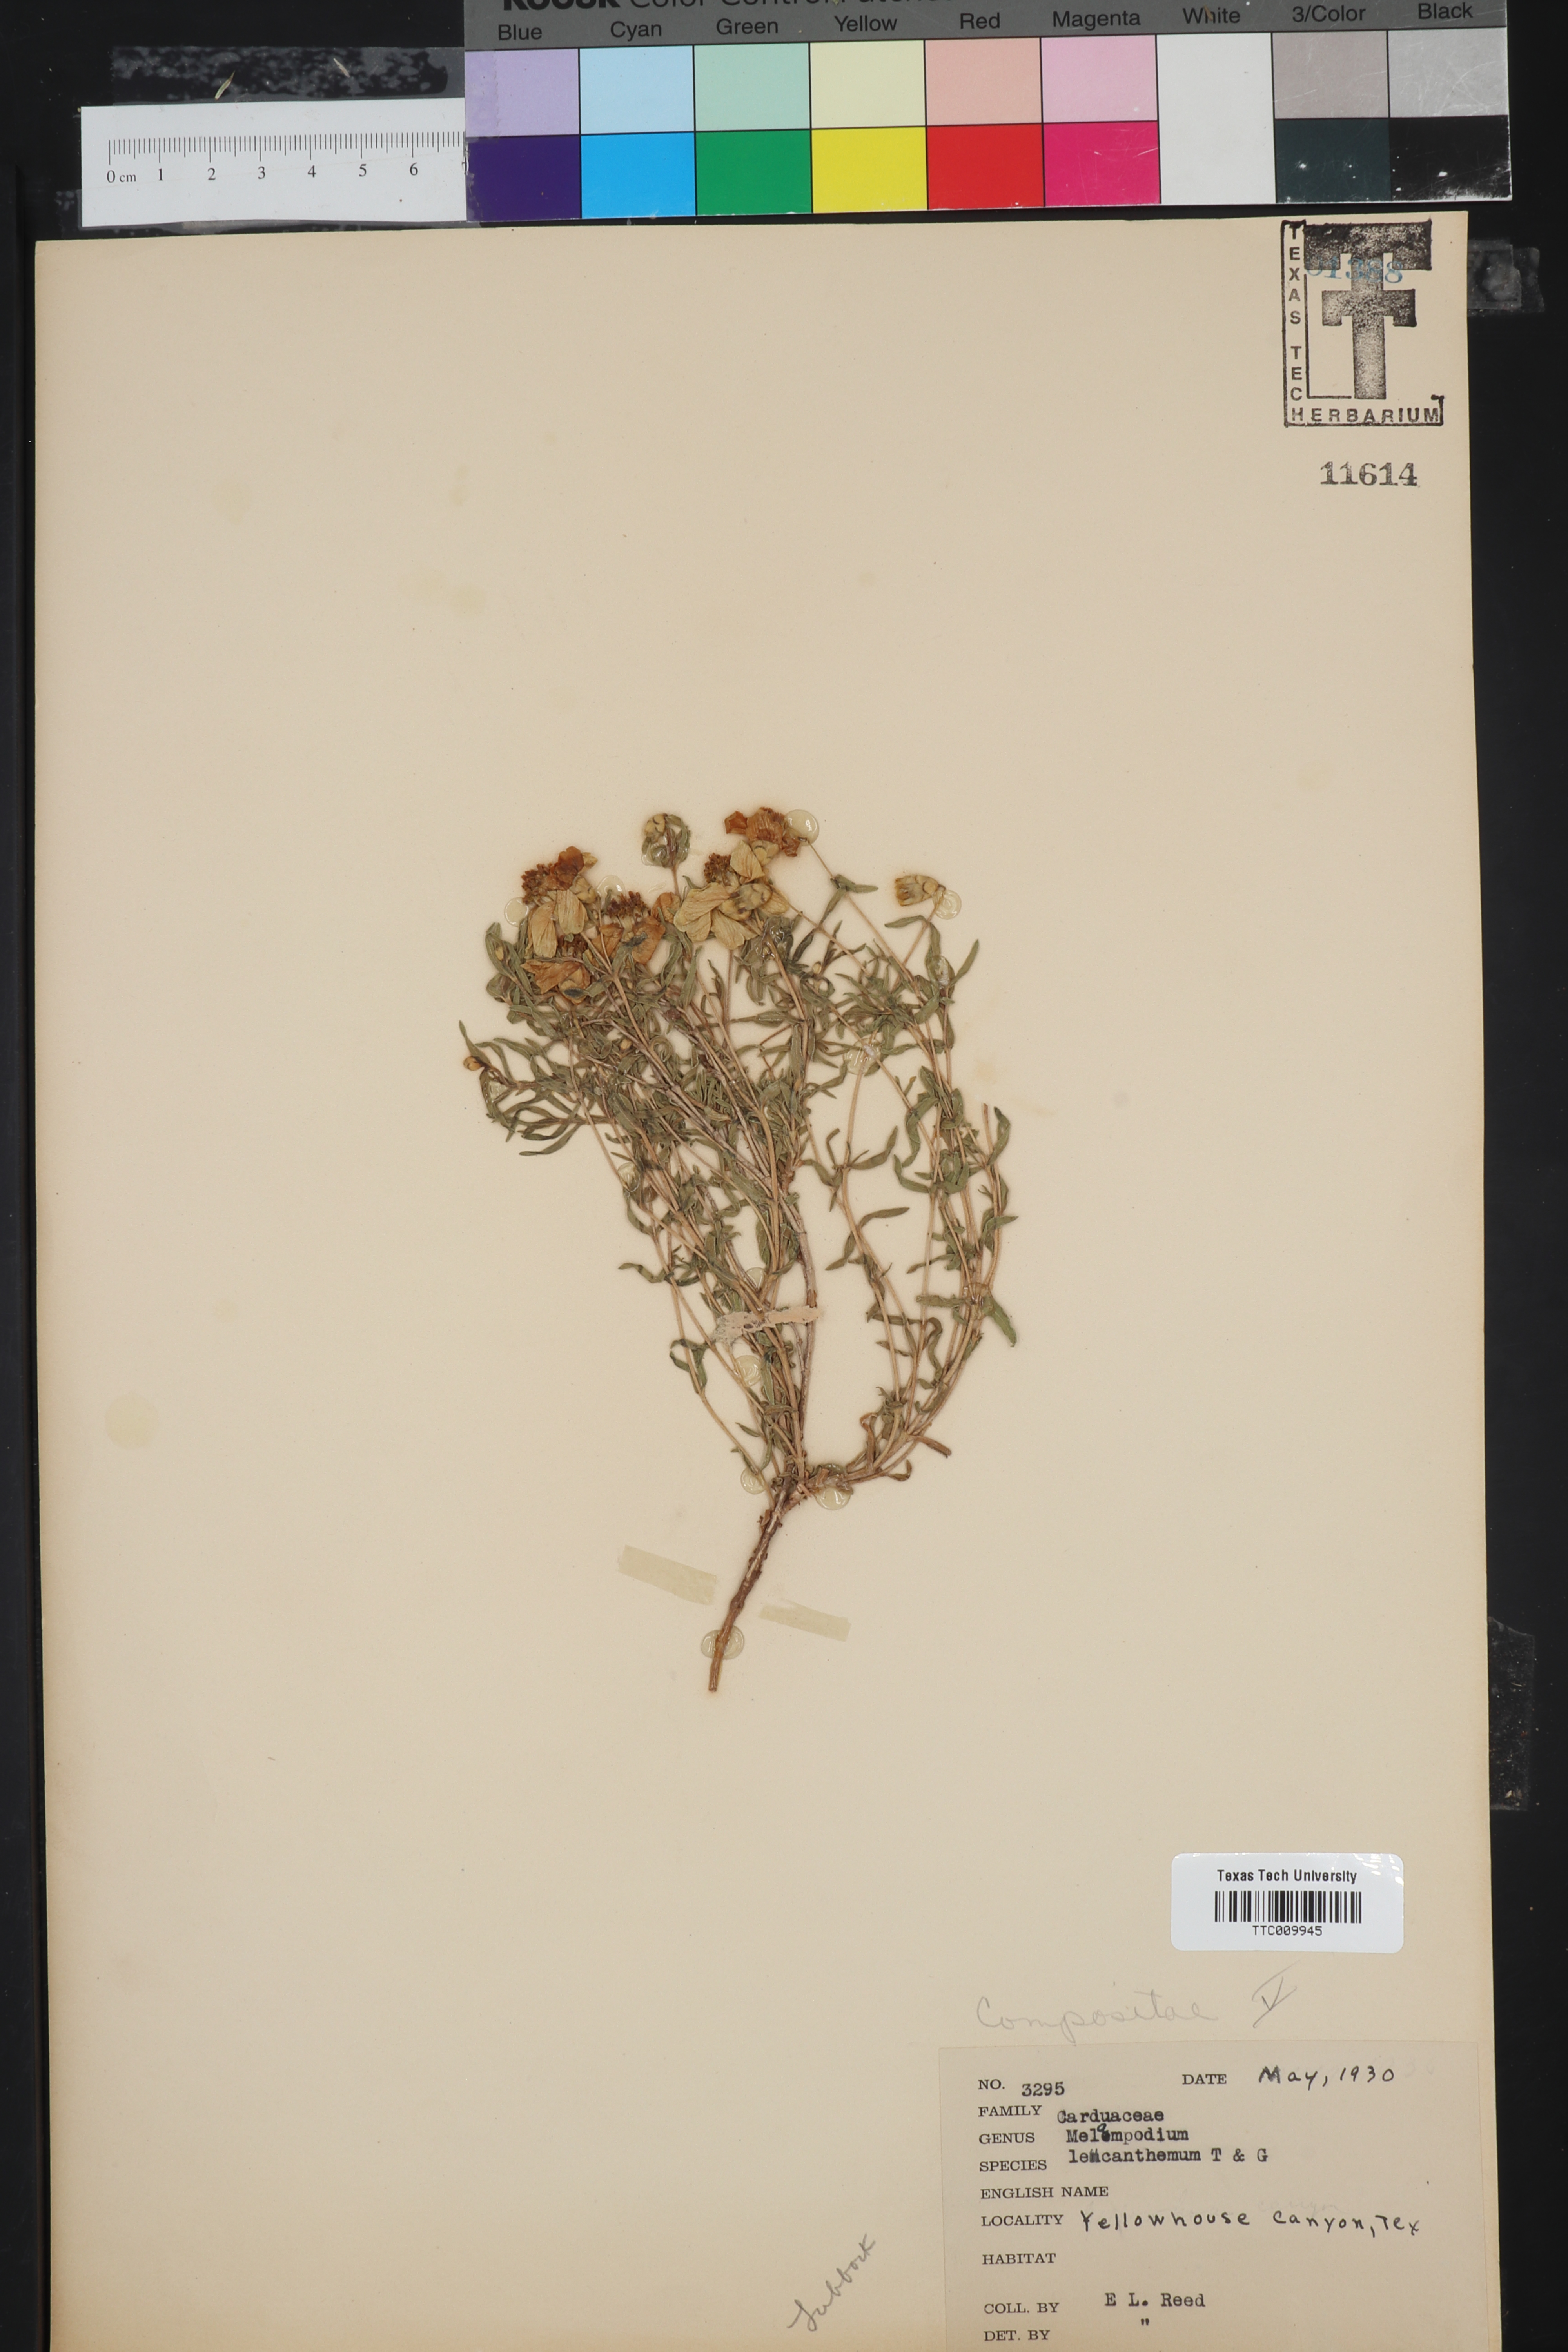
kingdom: Plantae
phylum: Tracheophyta
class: Magnoliopsida
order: Asterales
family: Asteraceae
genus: Melampodium
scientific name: Melampodium leucanthum
